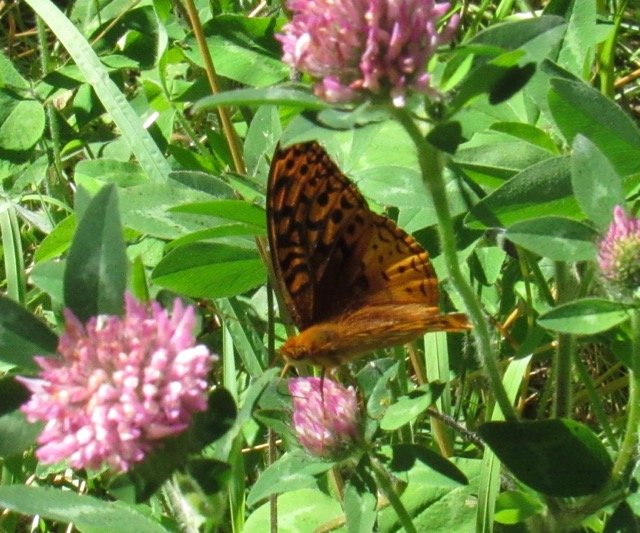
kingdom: Animalia
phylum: Arthropoda
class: Insecta
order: Lepidoptera
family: Nymphalidae
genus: Speyeria
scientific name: Speyeria cybele
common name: Great Spangled Fritillary
